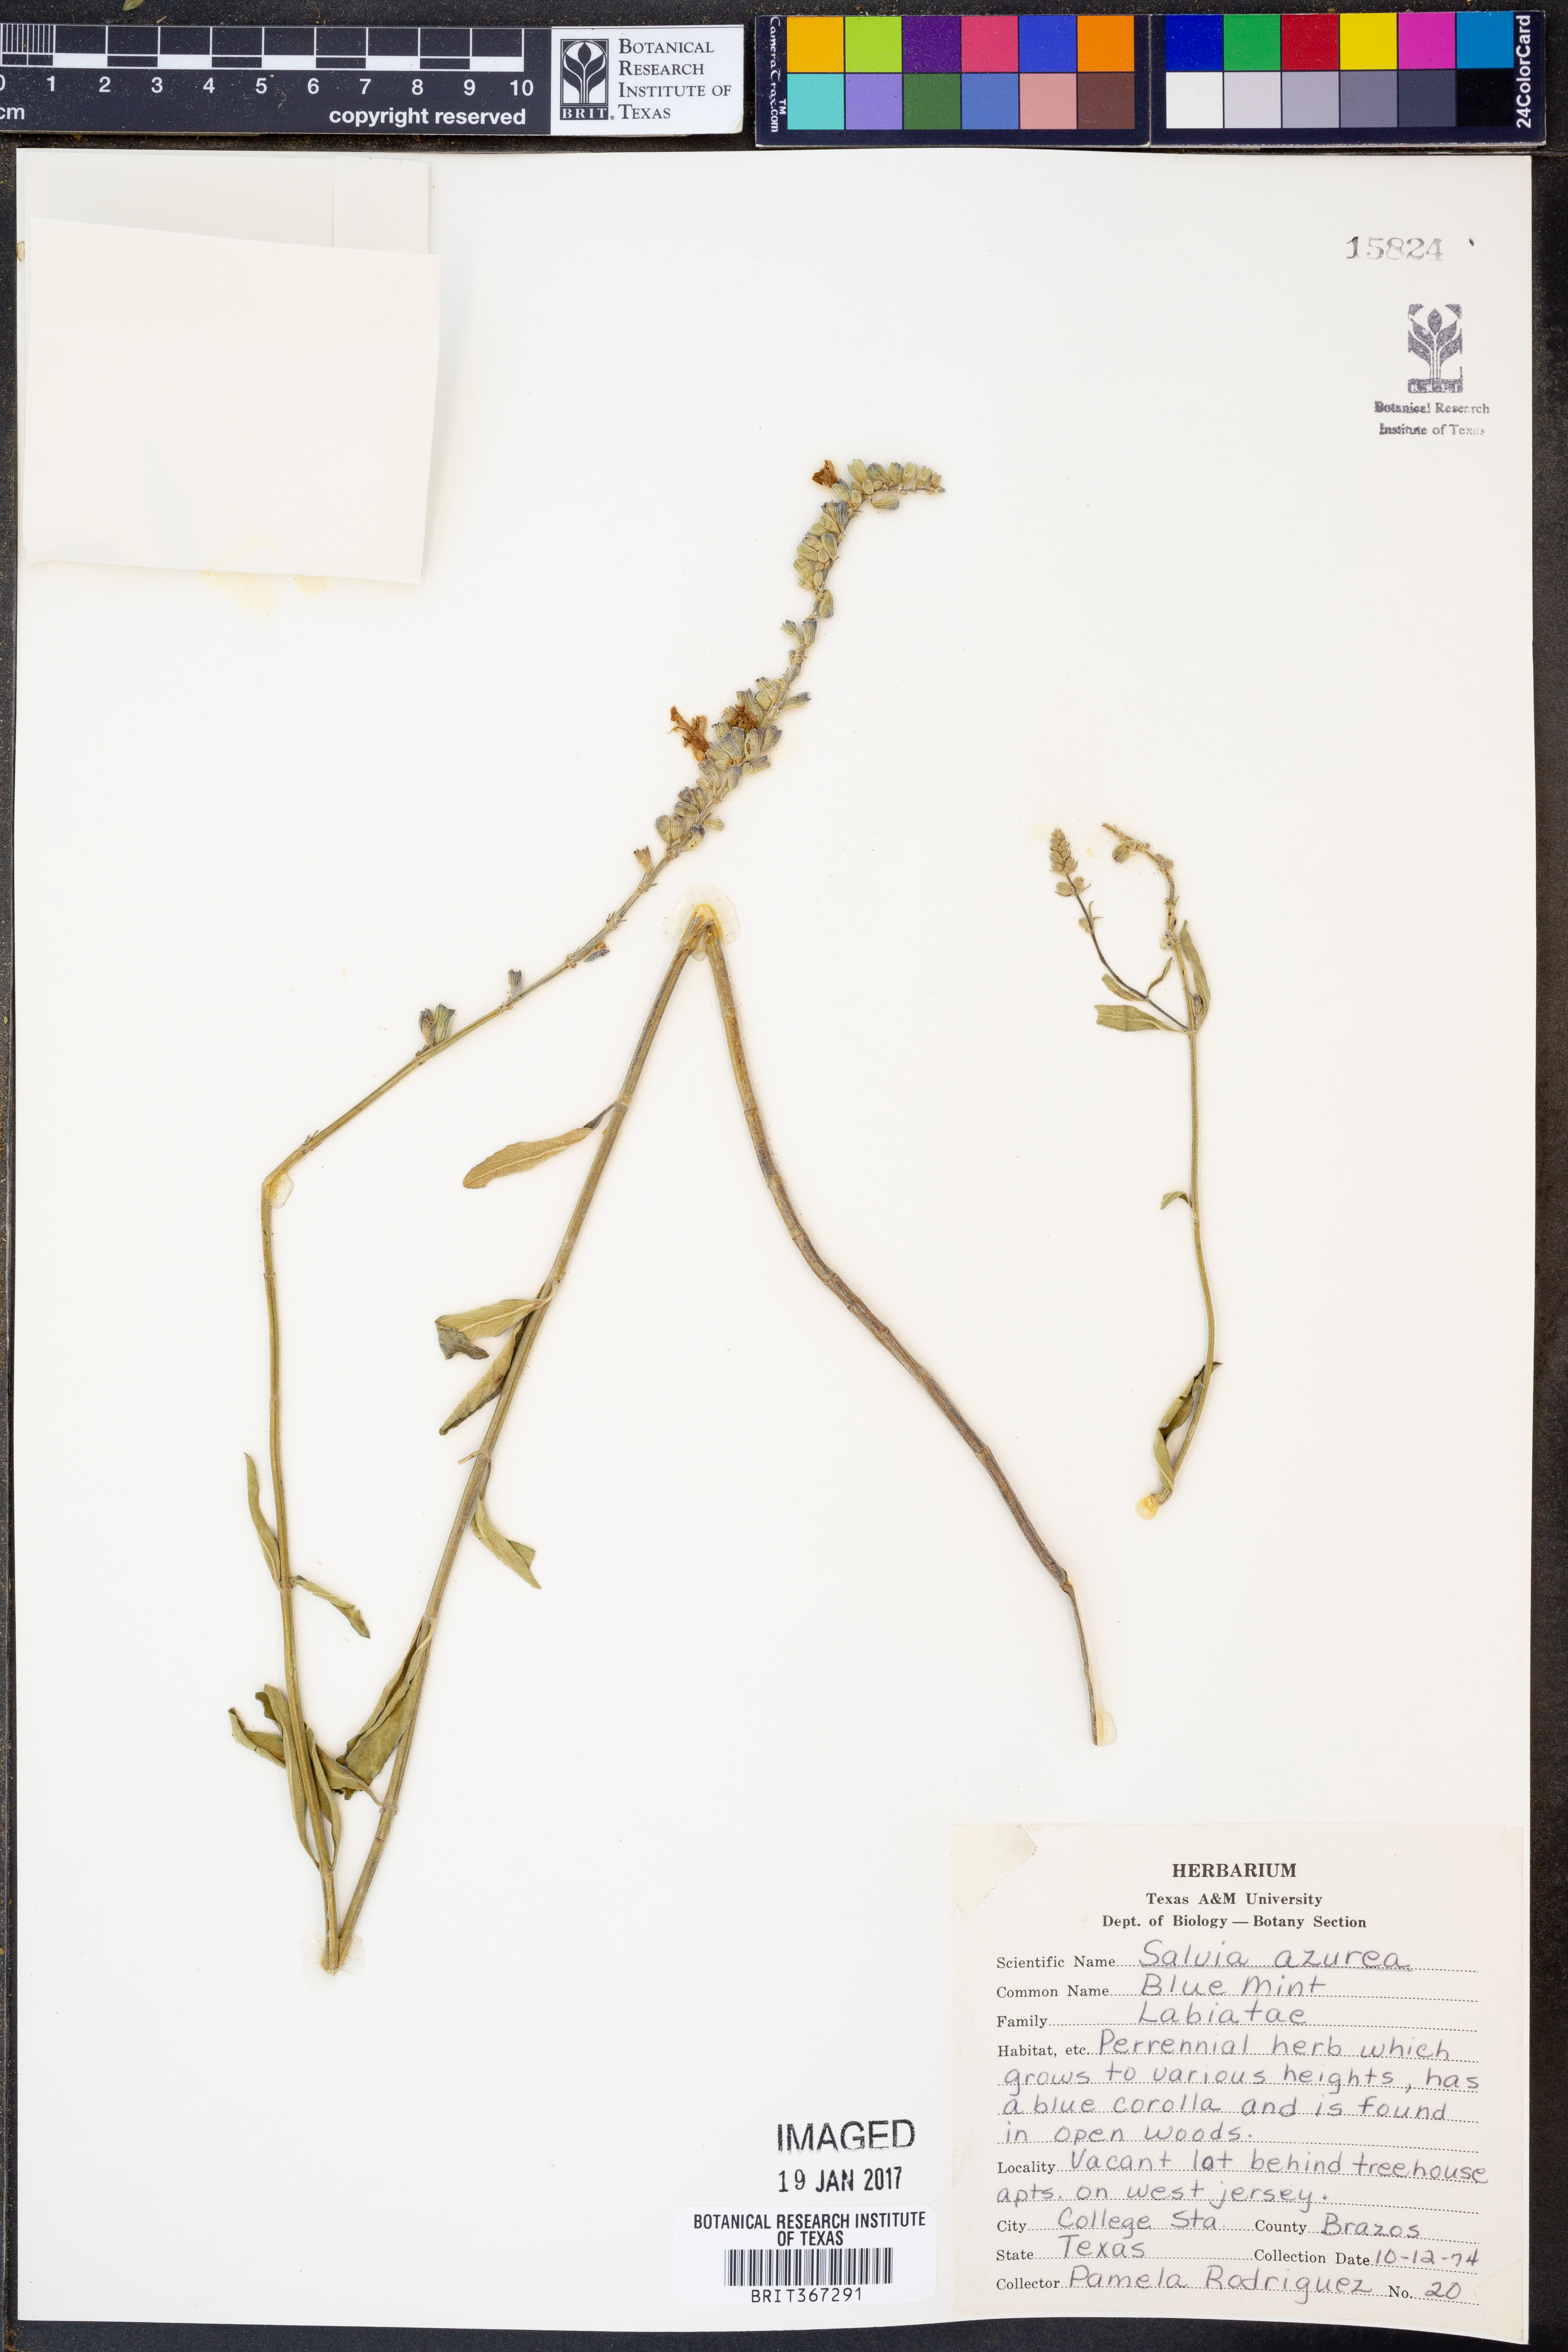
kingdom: Plantae
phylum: Tracheophyta
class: Magnoliopsida
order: Lamiales
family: Lamiaceae
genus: Salvia
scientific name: Salvia azurea
